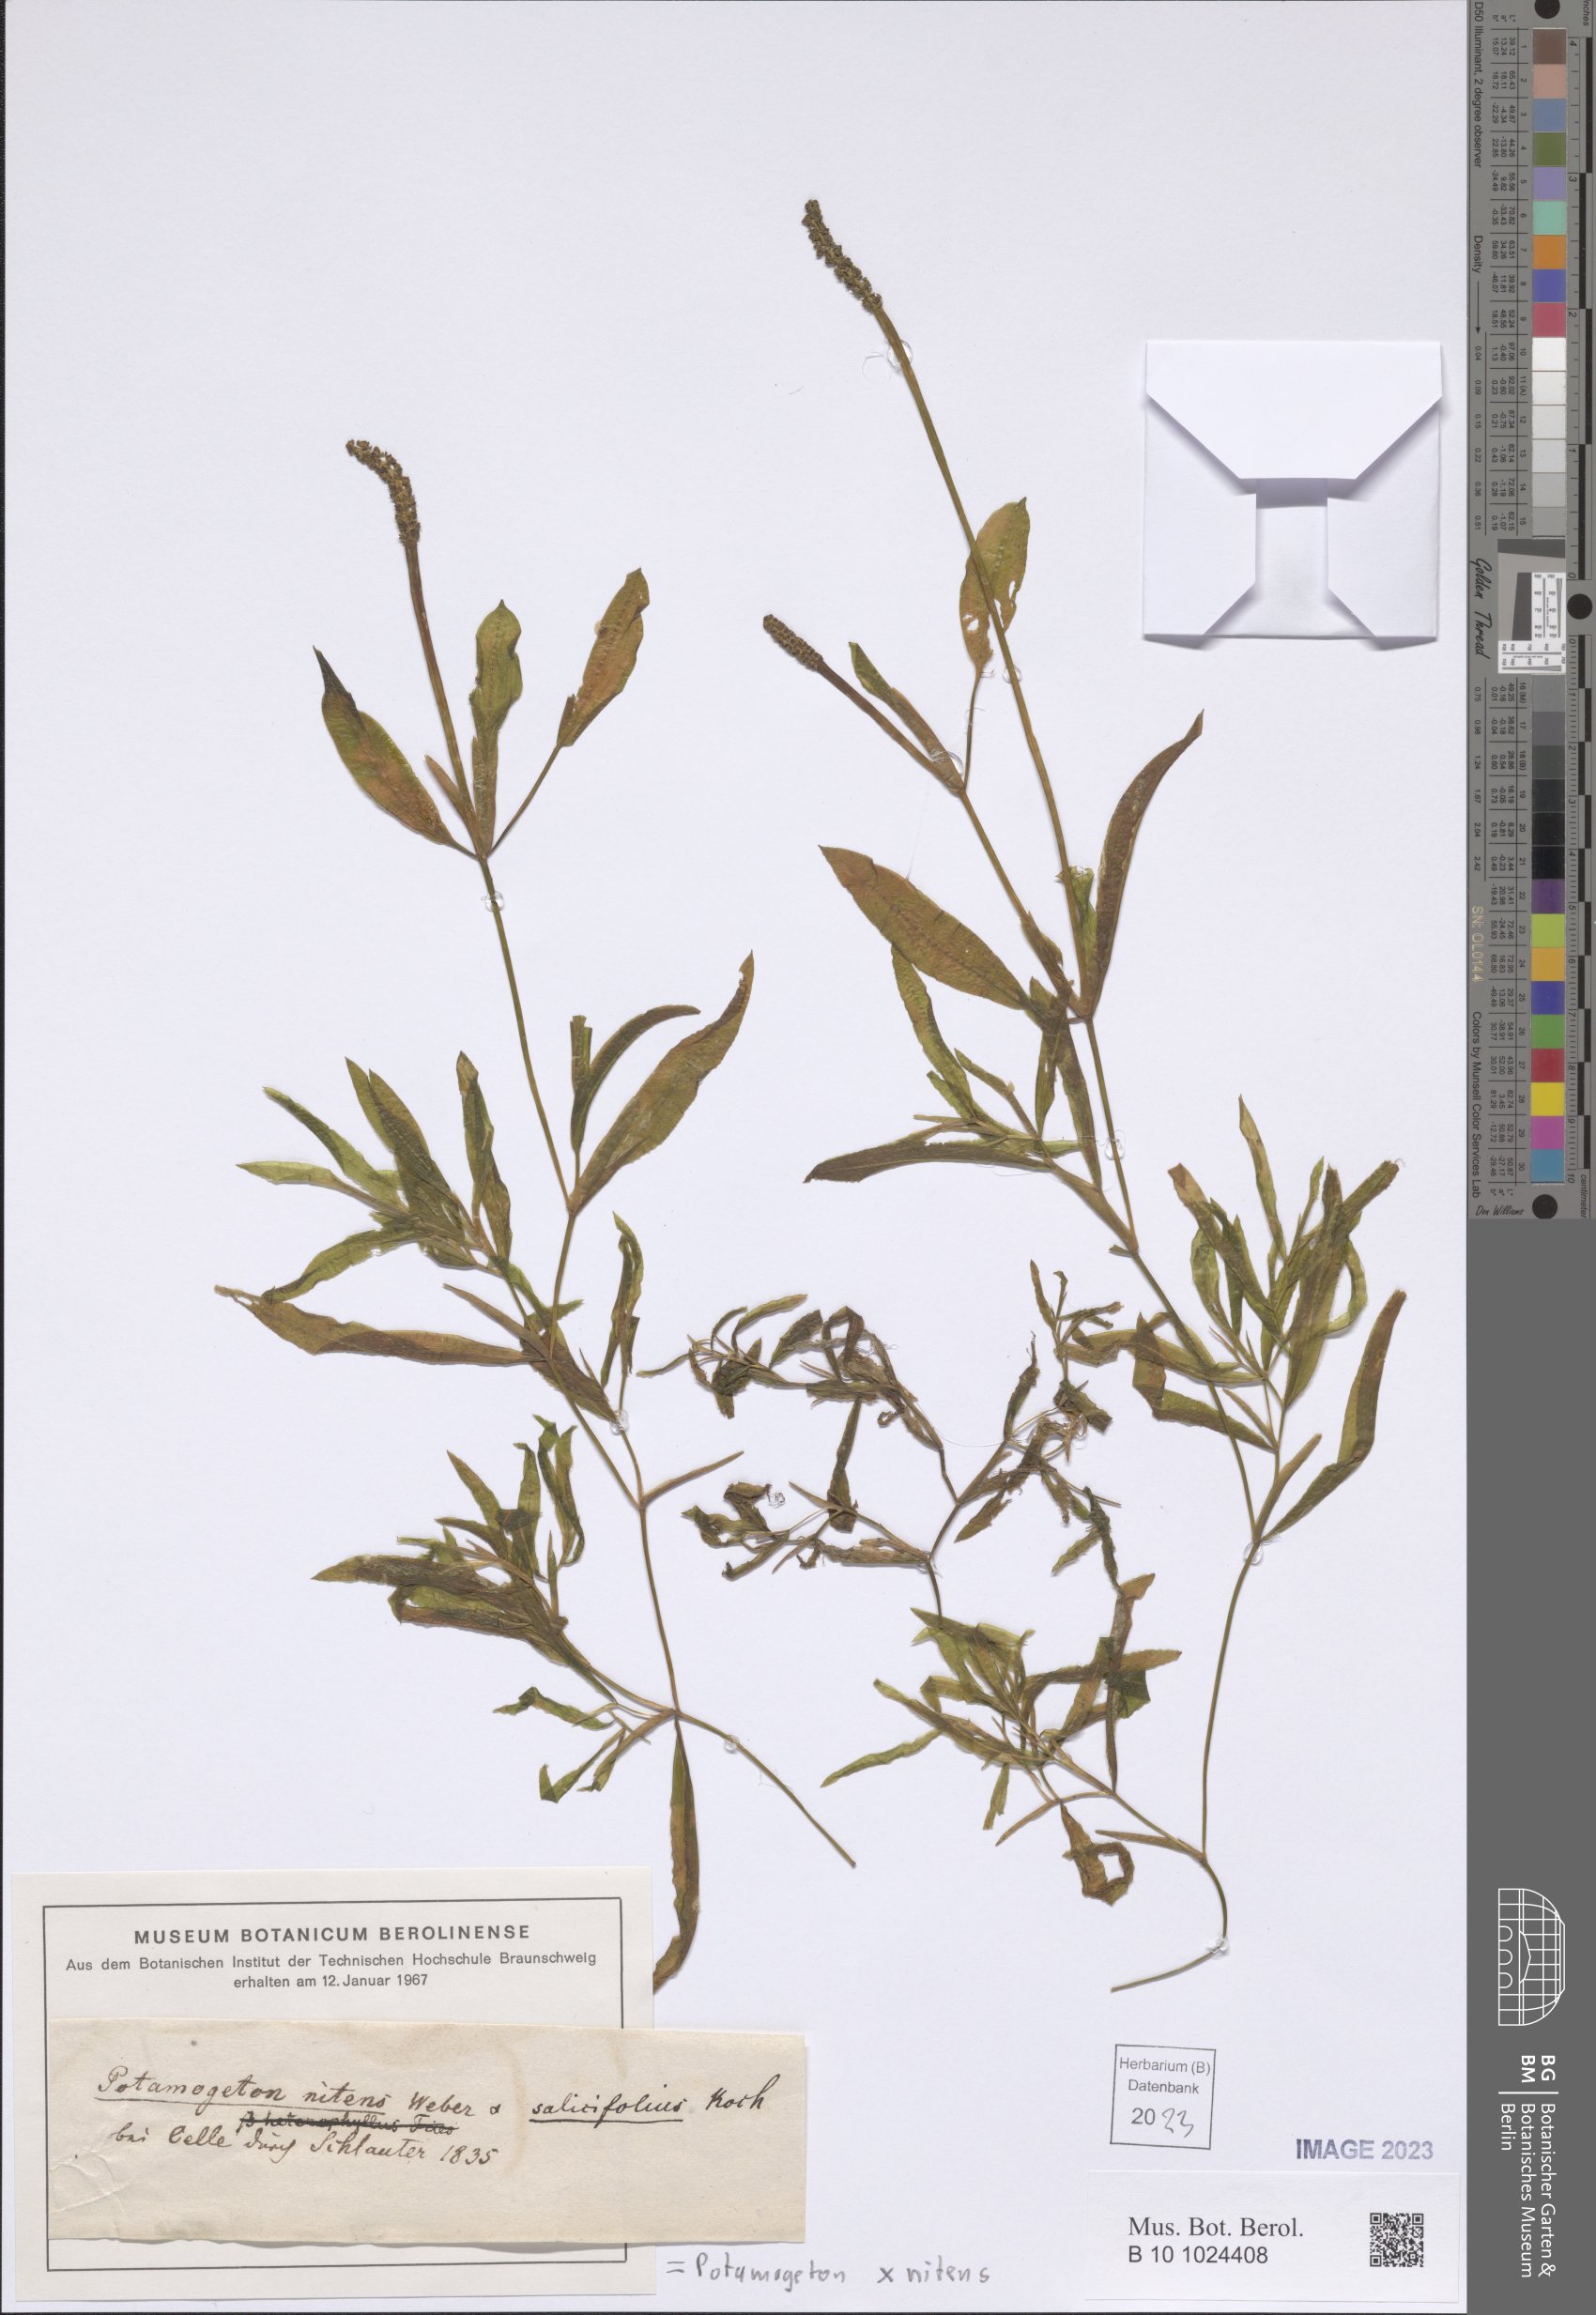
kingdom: Plantae
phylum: Tracheophyta
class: Liliopsida
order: Alismatales
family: Potamogetonaceae
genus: Potamogeton
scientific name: Potamogeton lucens
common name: Shining pondweed
